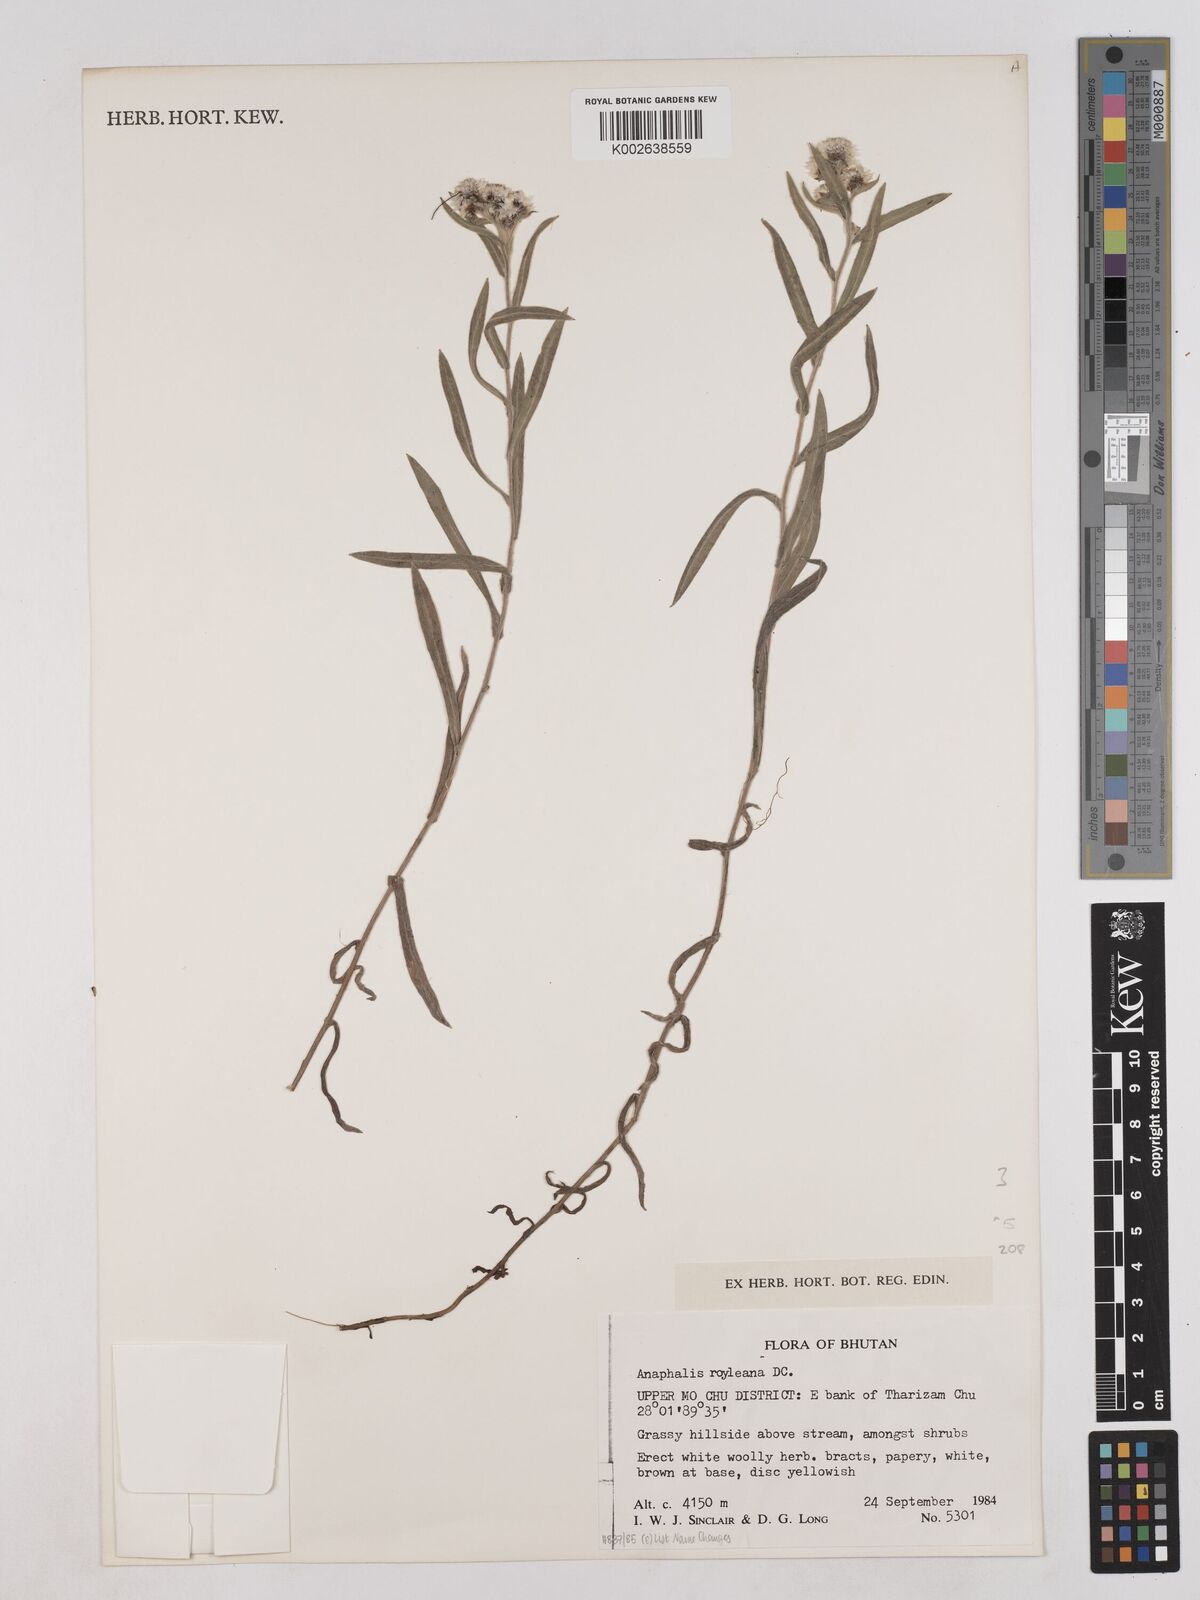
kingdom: Plantae
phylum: Tracheophyta
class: Magnoliopsida
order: Asterales
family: Asteraceae
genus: Anaphalis
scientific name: Anaphalis royleana
